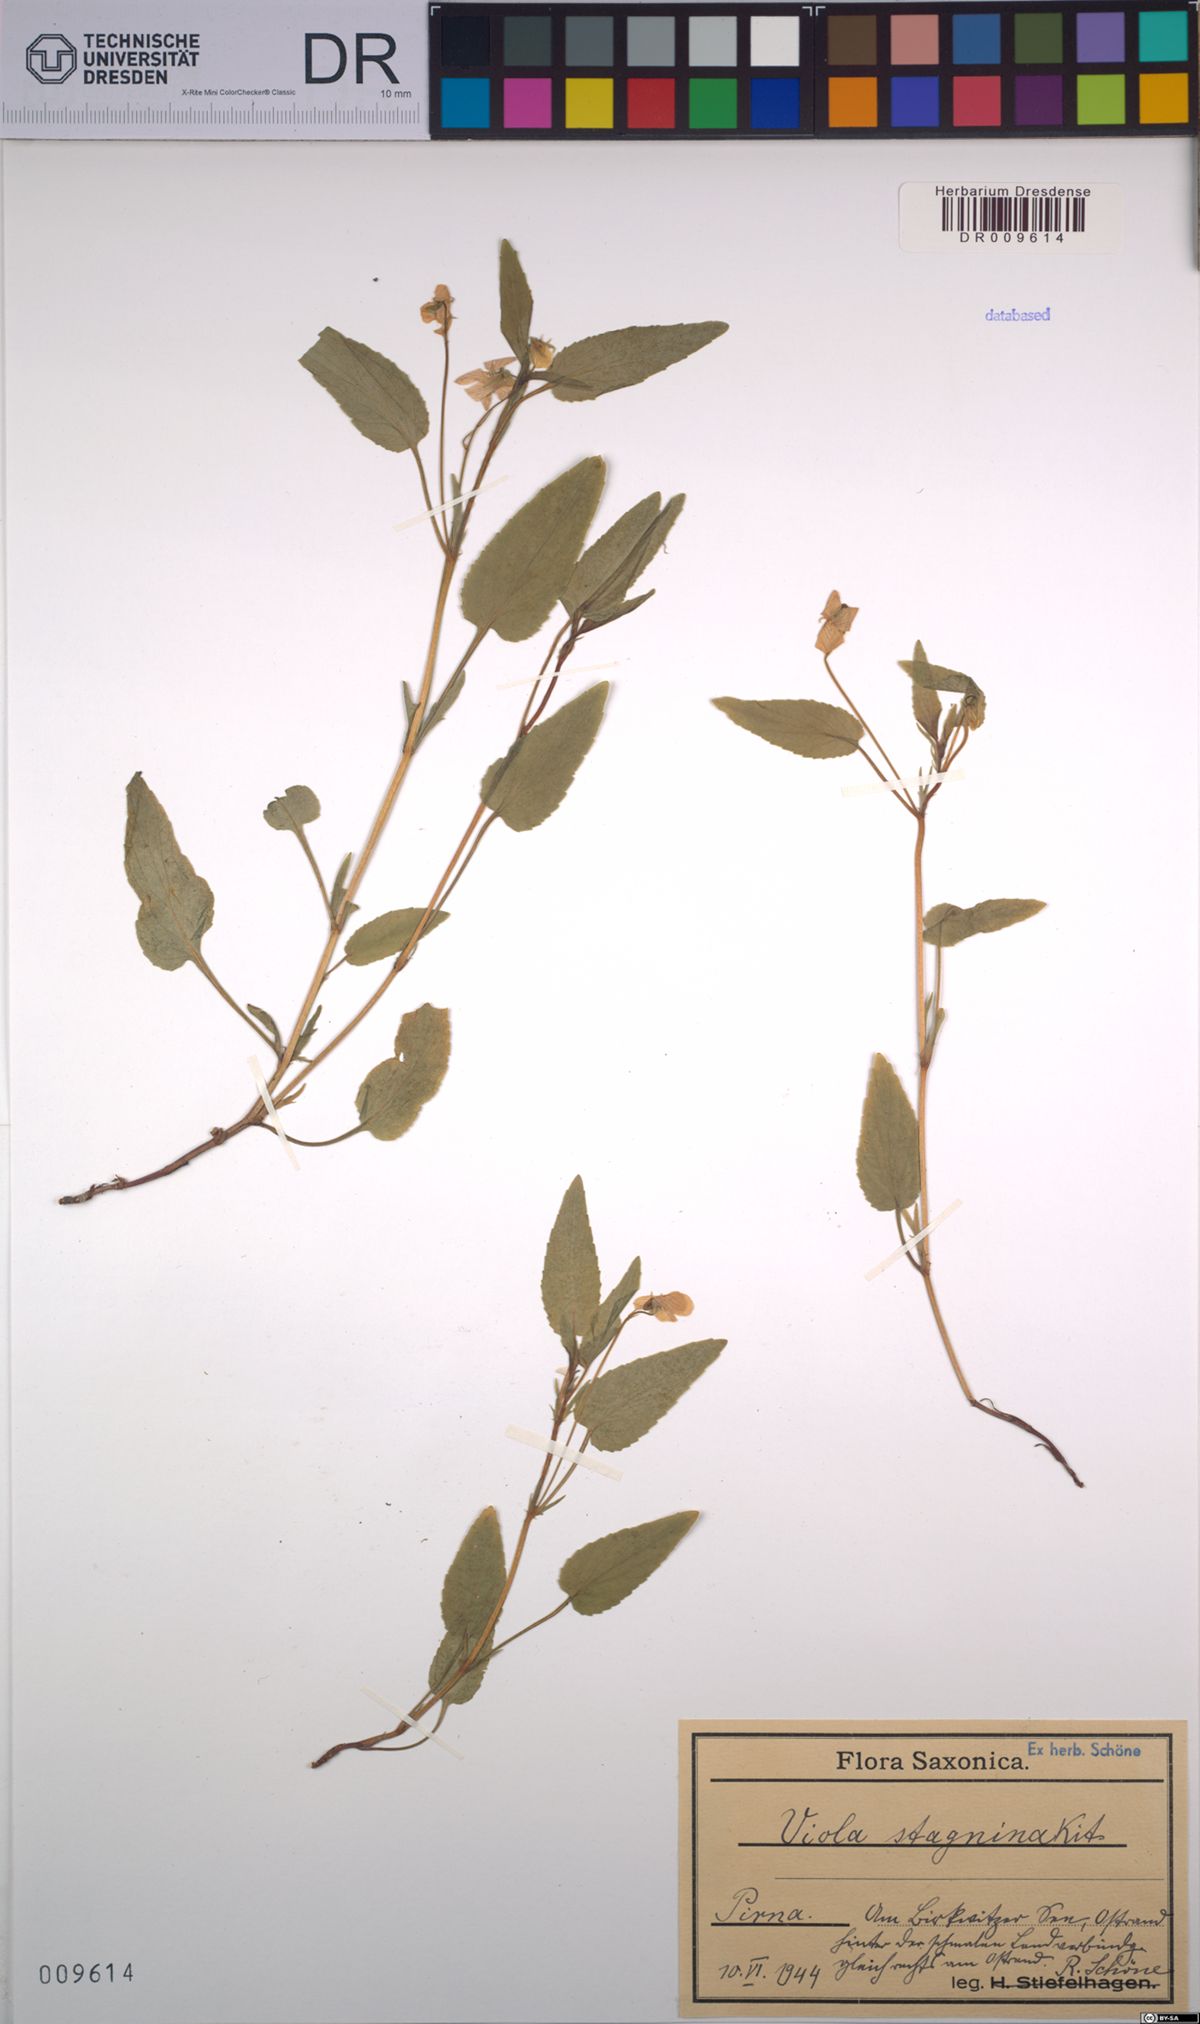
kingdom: Plantae
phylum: Tracheophyta
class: Magnoliopsida
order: Malpighiales
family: Violaceae
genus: Viola
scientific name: Viola stagnina
